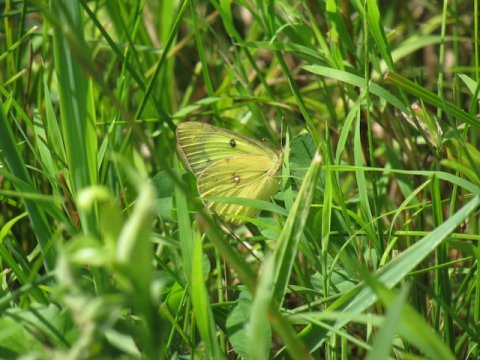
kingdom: Animalia
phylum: Arthropoda
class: Insecta
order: Lepidoptera
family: Pieridae
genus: Colias
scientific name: Colias philodice
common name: Clouded Sulphur
